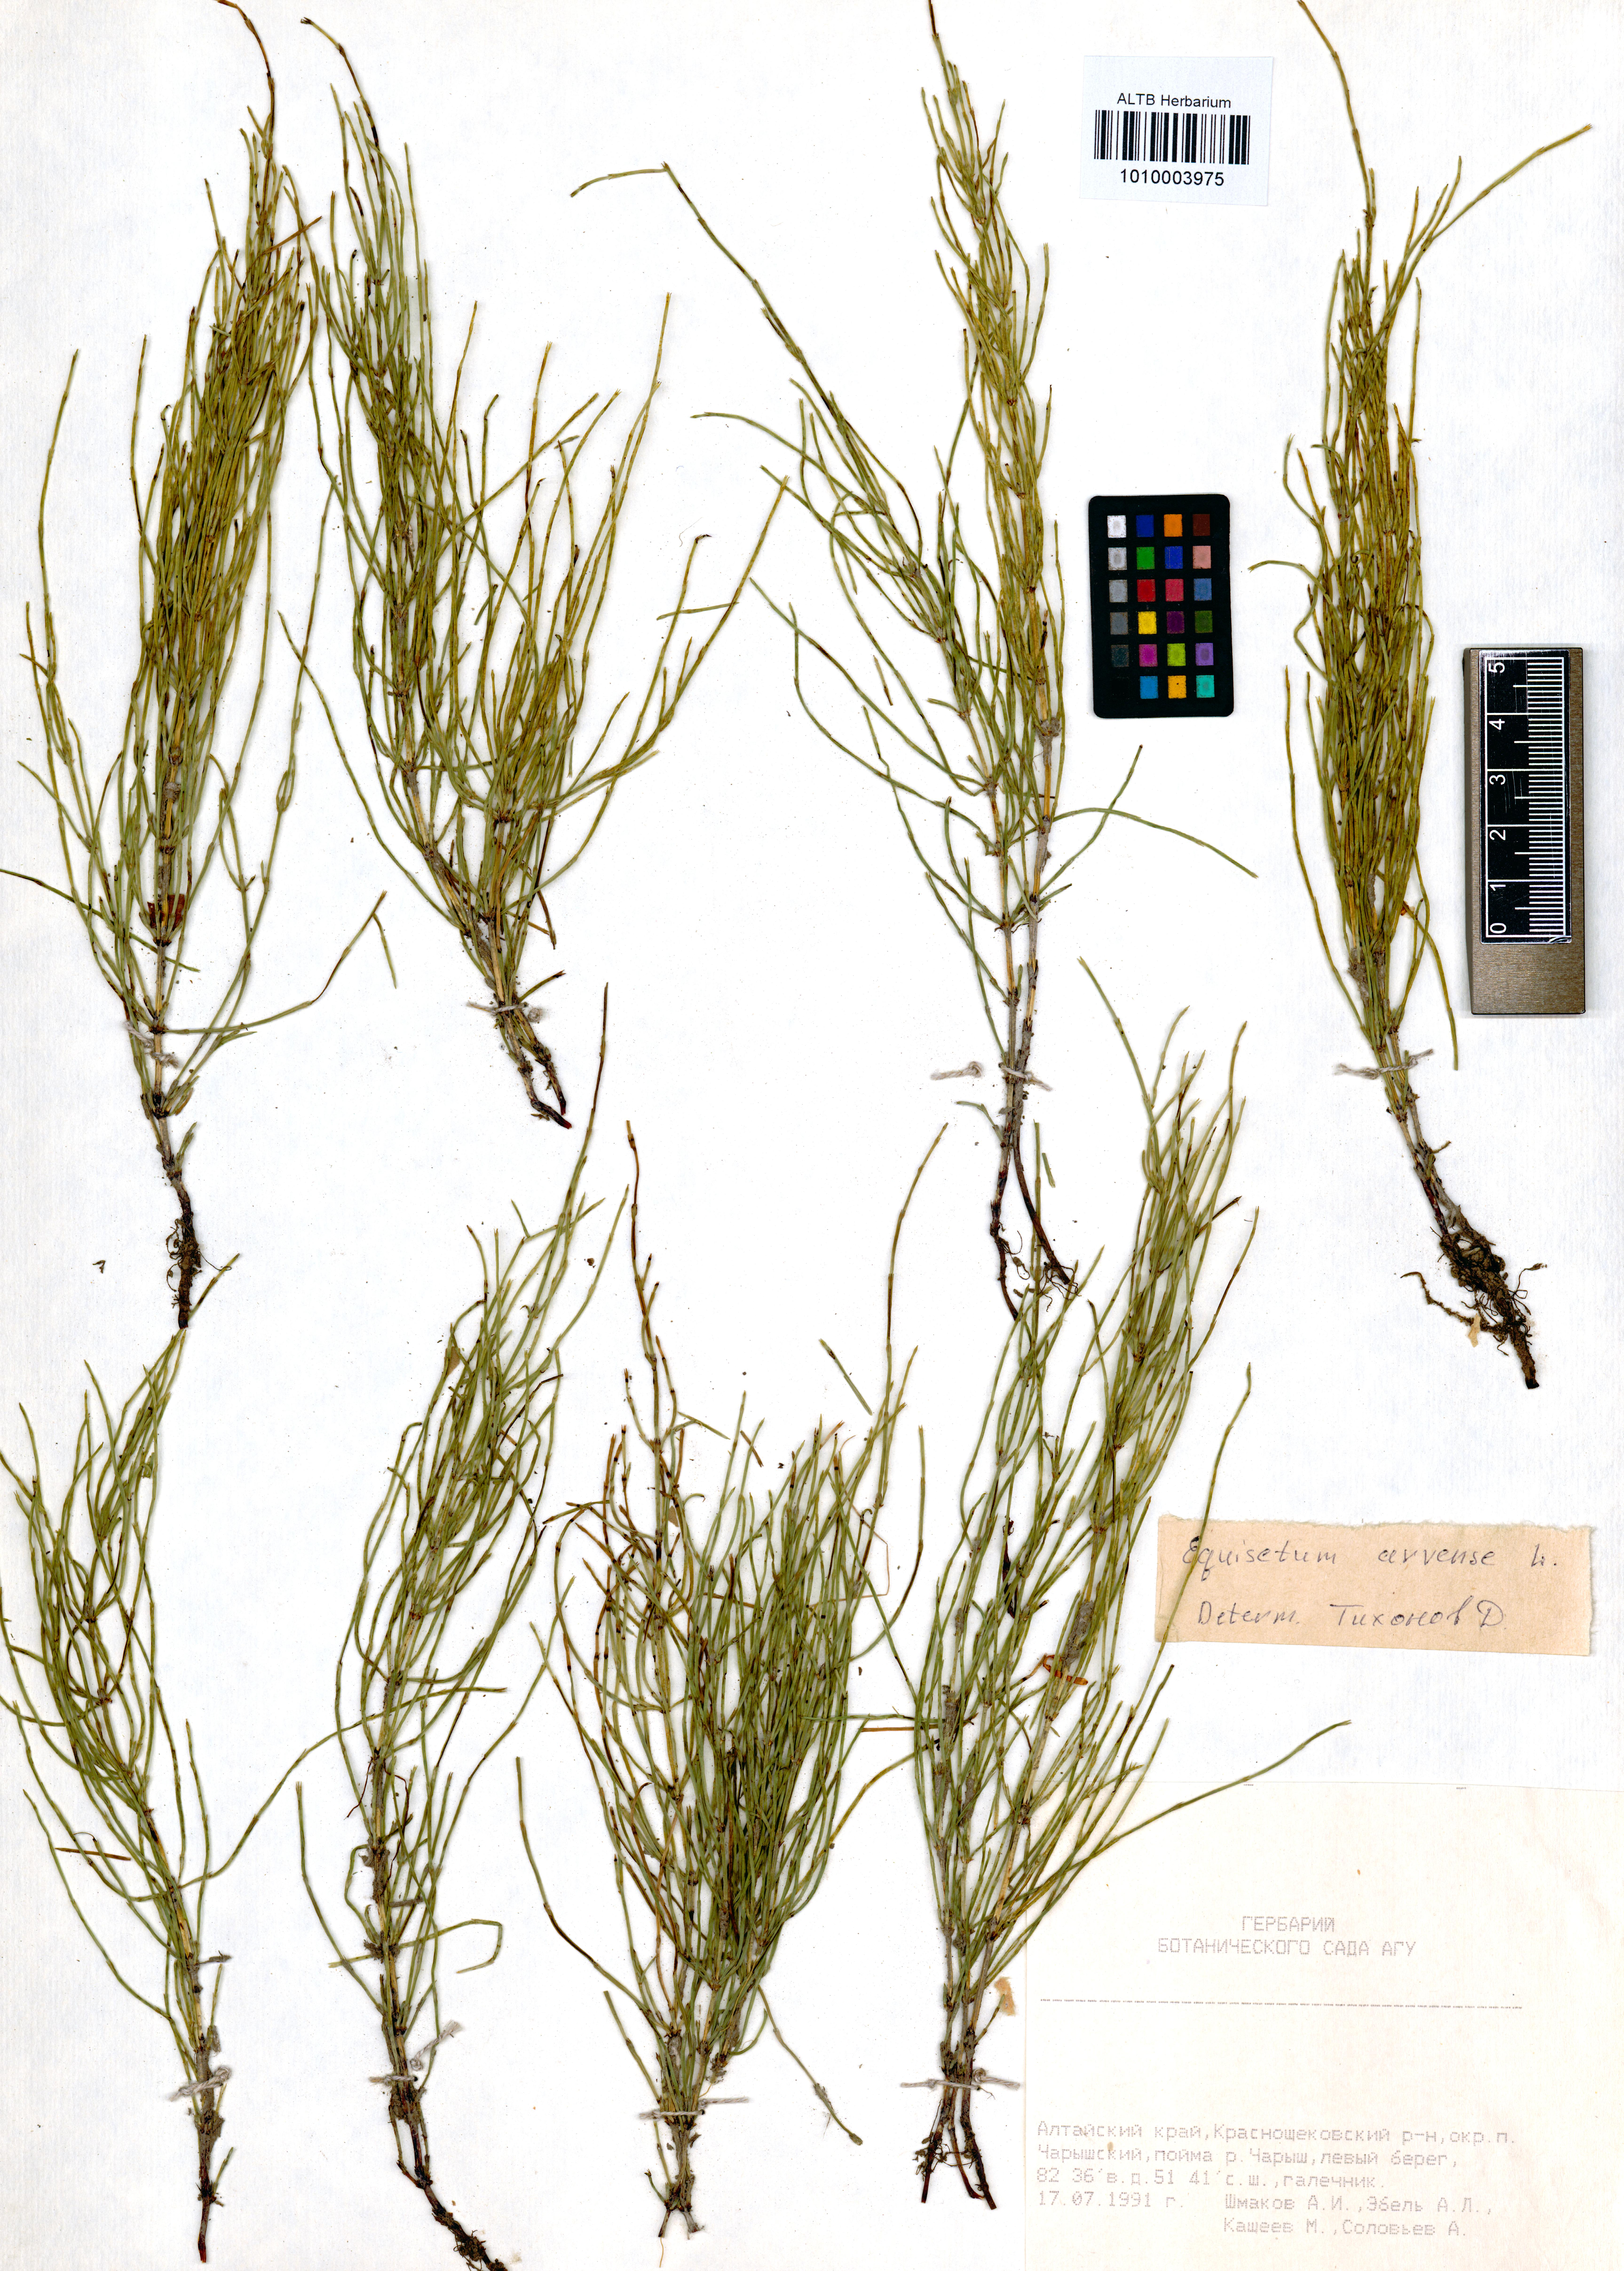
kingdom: Plantae
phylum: Tracheophyta
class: Polypodiopsida
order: Equisetales
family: Equisetaceae
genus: Equisetum
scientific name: Equisetum arvense
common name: Field horsetail
